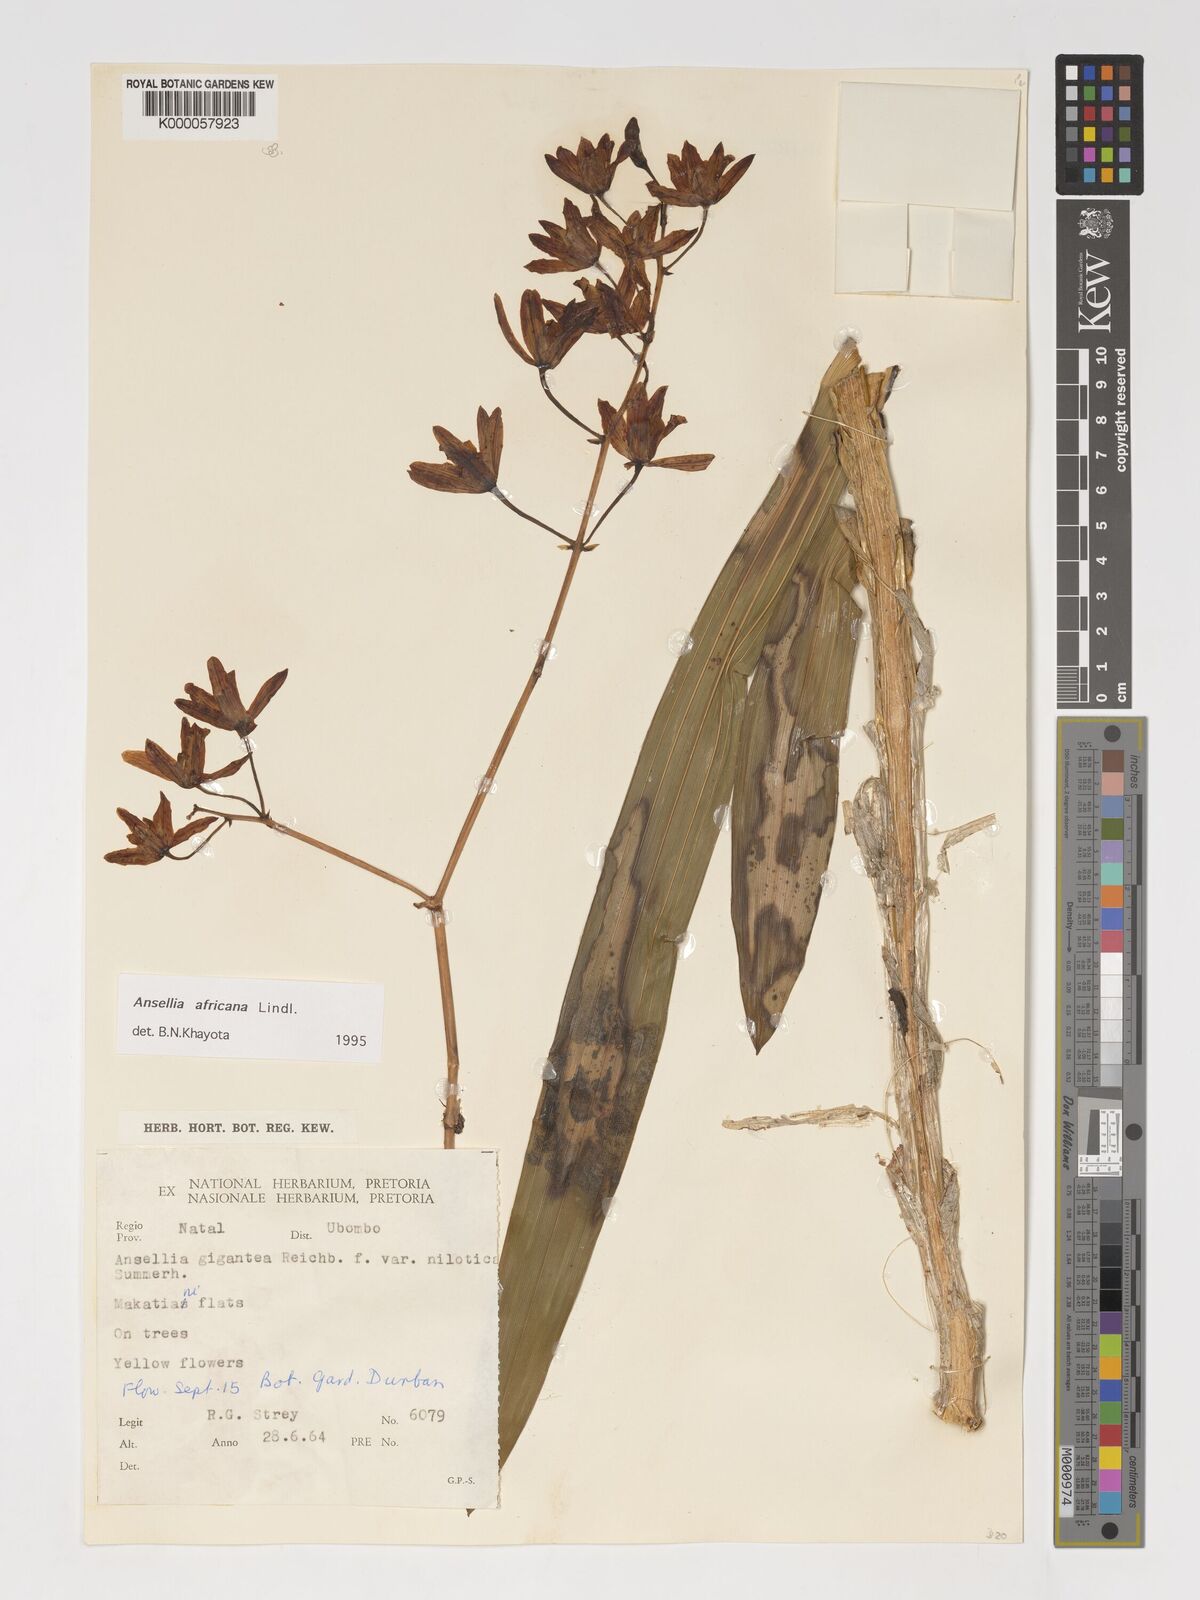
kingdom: Plantae
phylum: Tracheophyta
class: Liliopsida
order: Asparagales
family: Orchidaceae
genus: Ansellia
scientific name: Ansellia africana
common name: African ansellia
